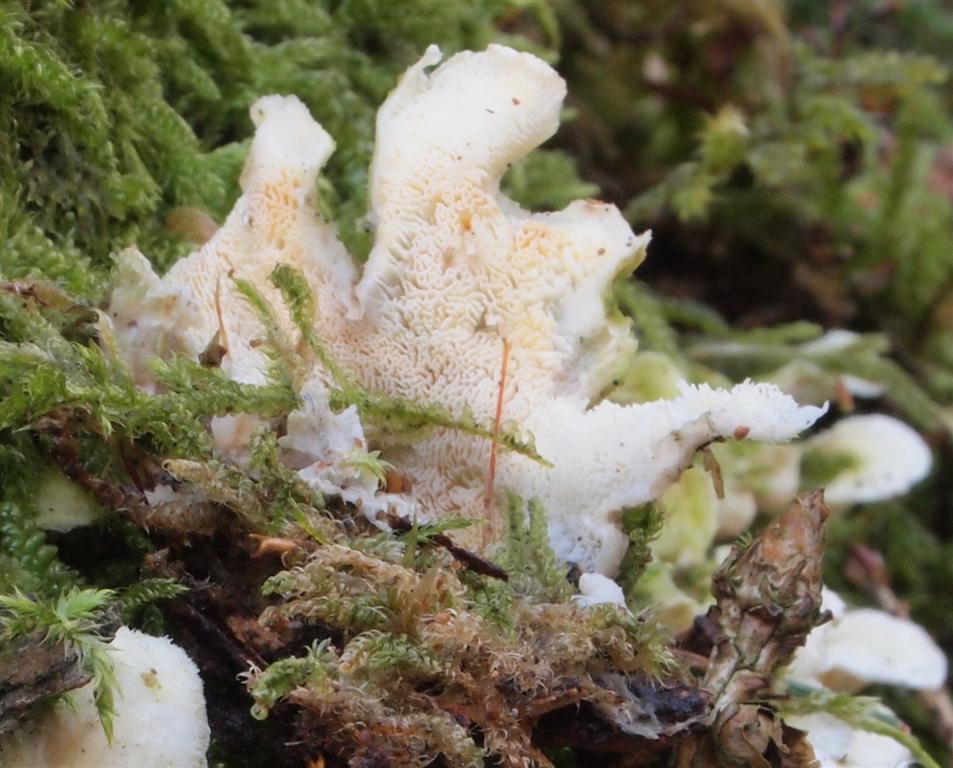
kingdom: Fungi
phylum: Basidiomycota
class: Agaricomycetes
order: Polyporales
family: Incrustoporiaceae
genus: Skeletocutis
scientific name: Skeletocutis amorpha
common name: orange krystalporesvamp
